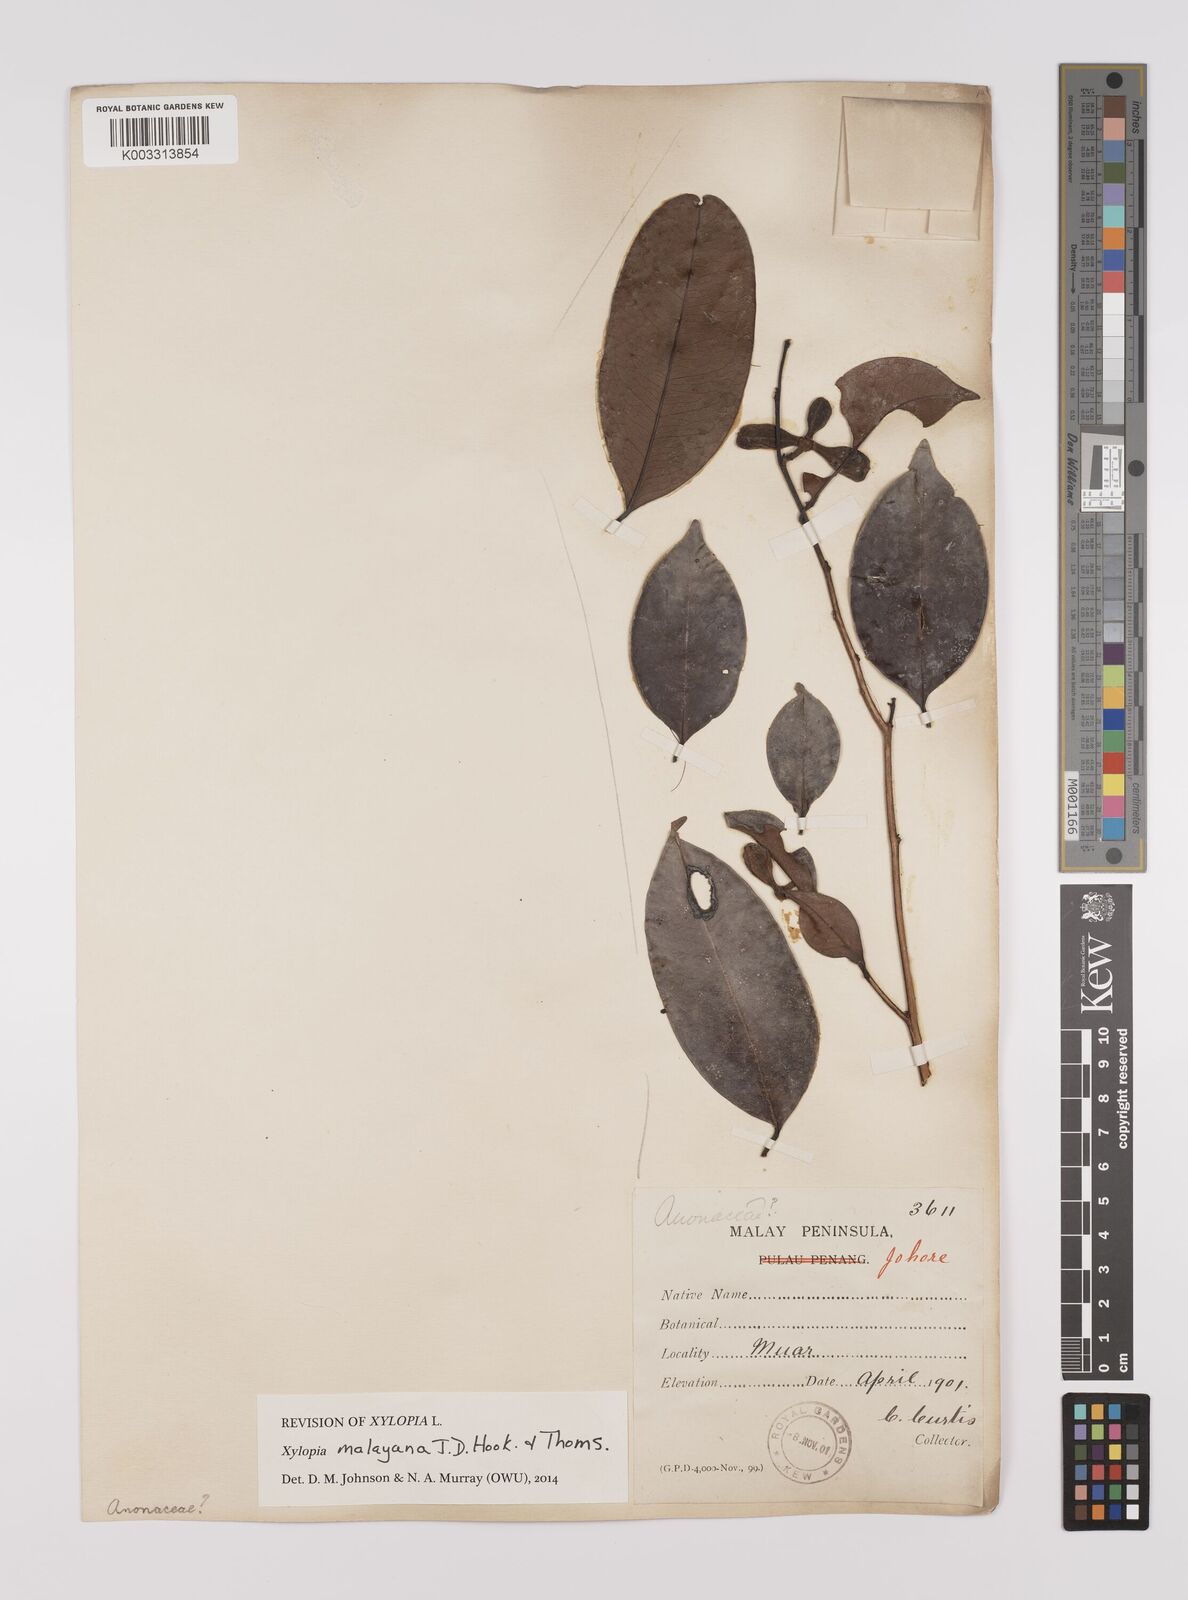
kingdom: Plantae
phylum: Tracheophyta
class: Magnoliopsida
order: Magnoliales
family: Annonaceae
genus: Xylopia
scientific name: Xylopia malayana
